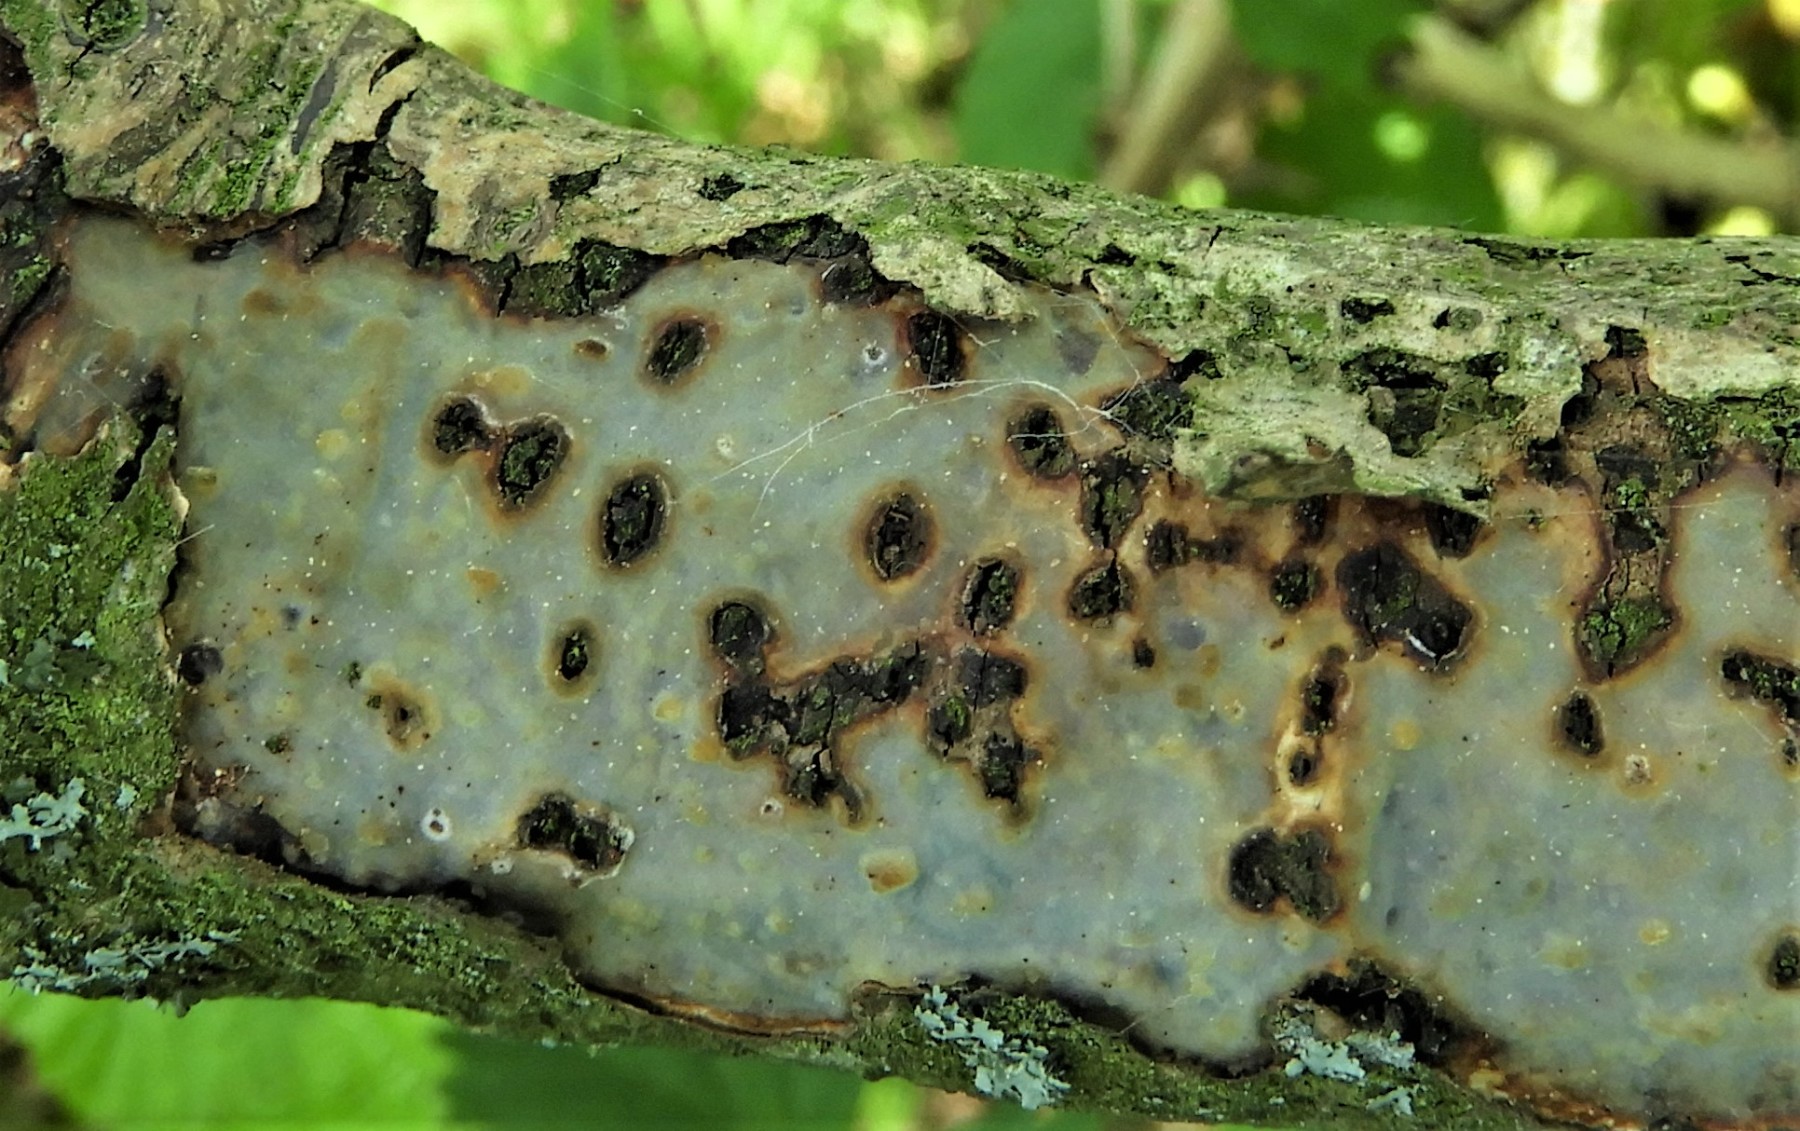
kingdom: Fungi
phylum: Basidiomycota
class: Agaricomycetes
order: Corticiales
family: Vuilleminiaceae
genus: Vuilleminia
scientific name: Vuilleminia comedens
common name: almindelig barksprænger
